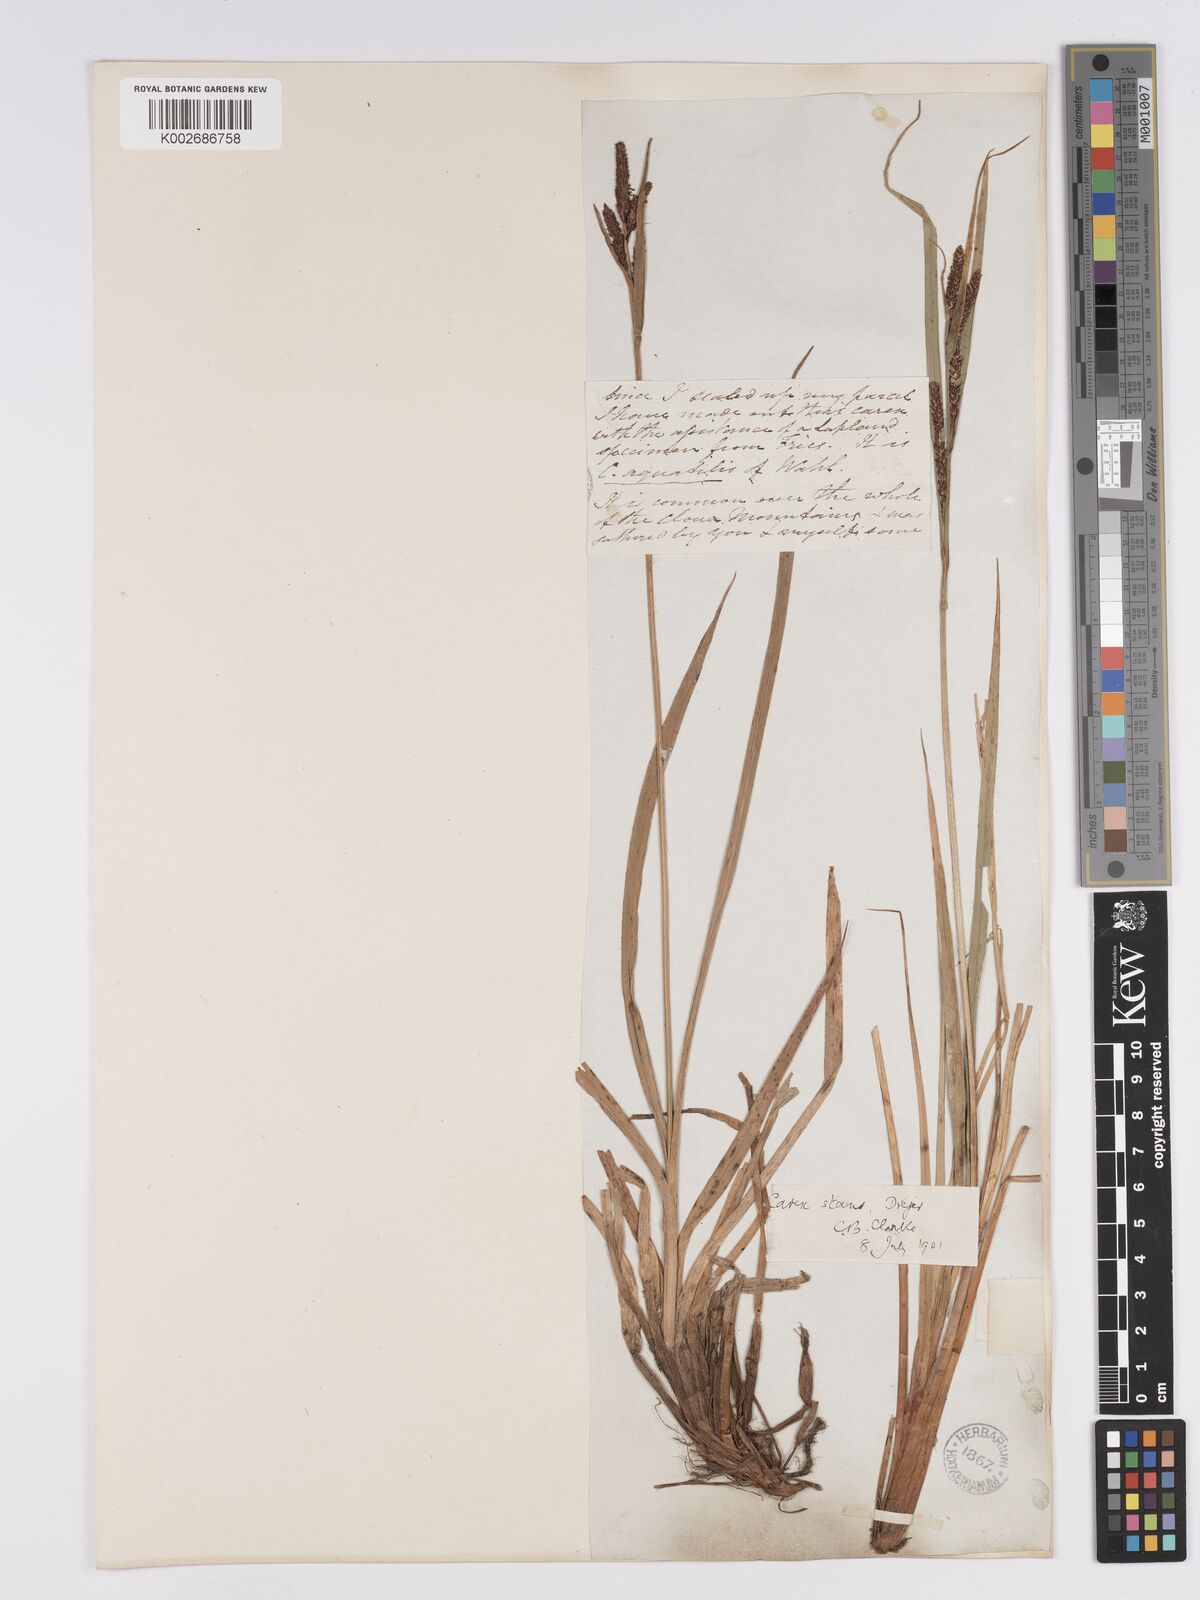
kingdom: Plantae
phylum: Tracheophyta
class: Liliopsida
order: Poales
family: Cyperaceae
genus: Carex
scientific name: Carex aquatilis
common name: Water sedge
